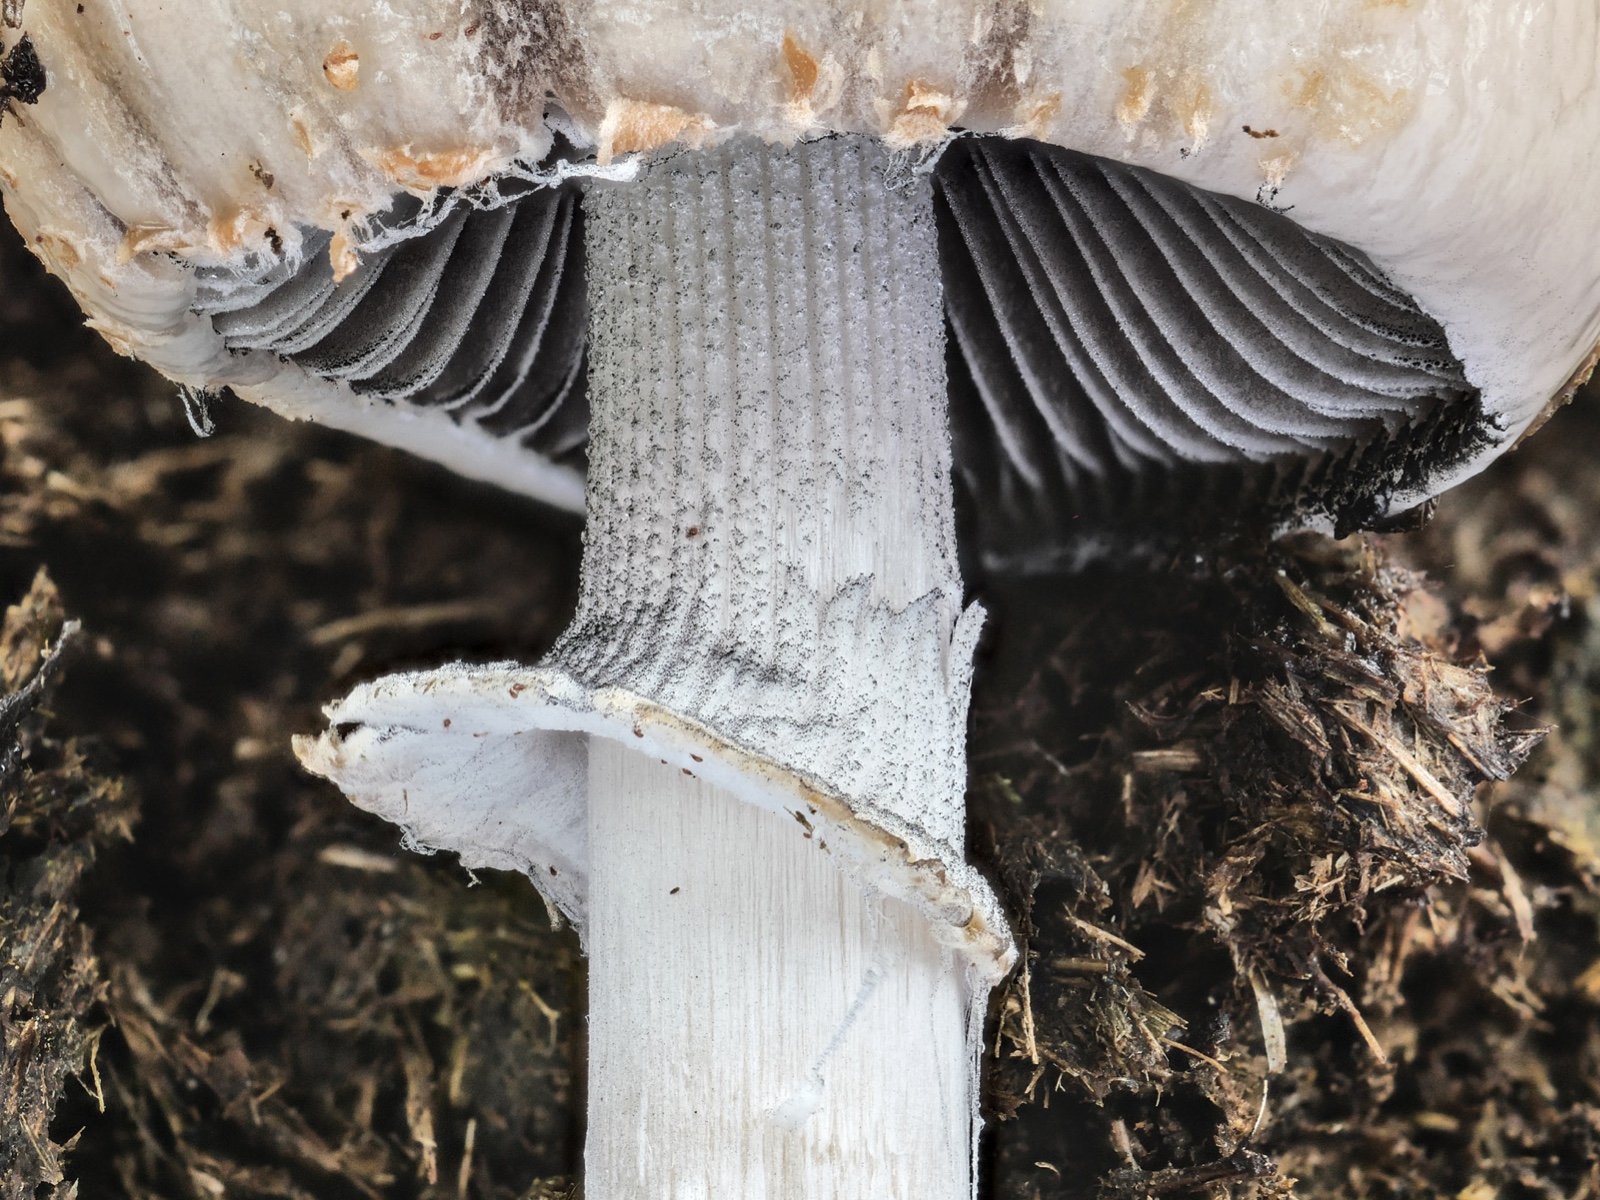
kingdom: Fungi
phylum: Basidiomycota
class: Agaricomycetes
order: Agaricales
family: Bolbitiaceae
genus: Panaeolus
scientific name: Panaeolus semiovatus
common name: ring-glanshat
